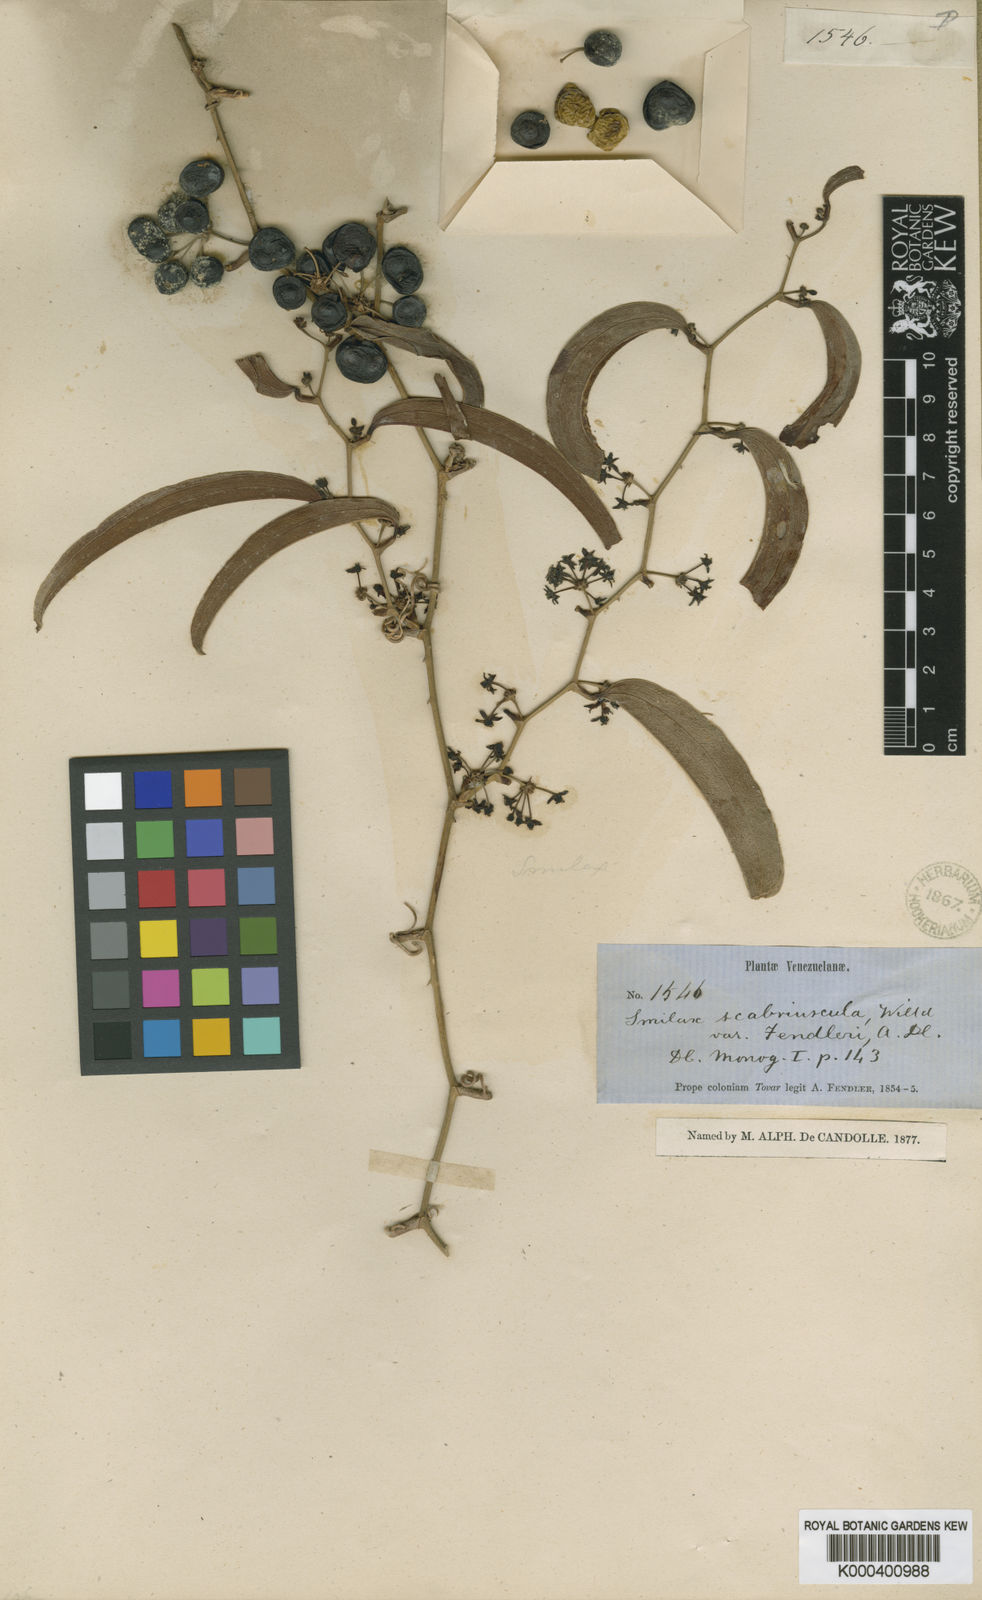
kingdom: Plantae
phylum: Tracheophyta
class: Liliopsida
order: Liliales
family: Smilacaceae
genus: Smilax
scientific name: Smilax spinosa
